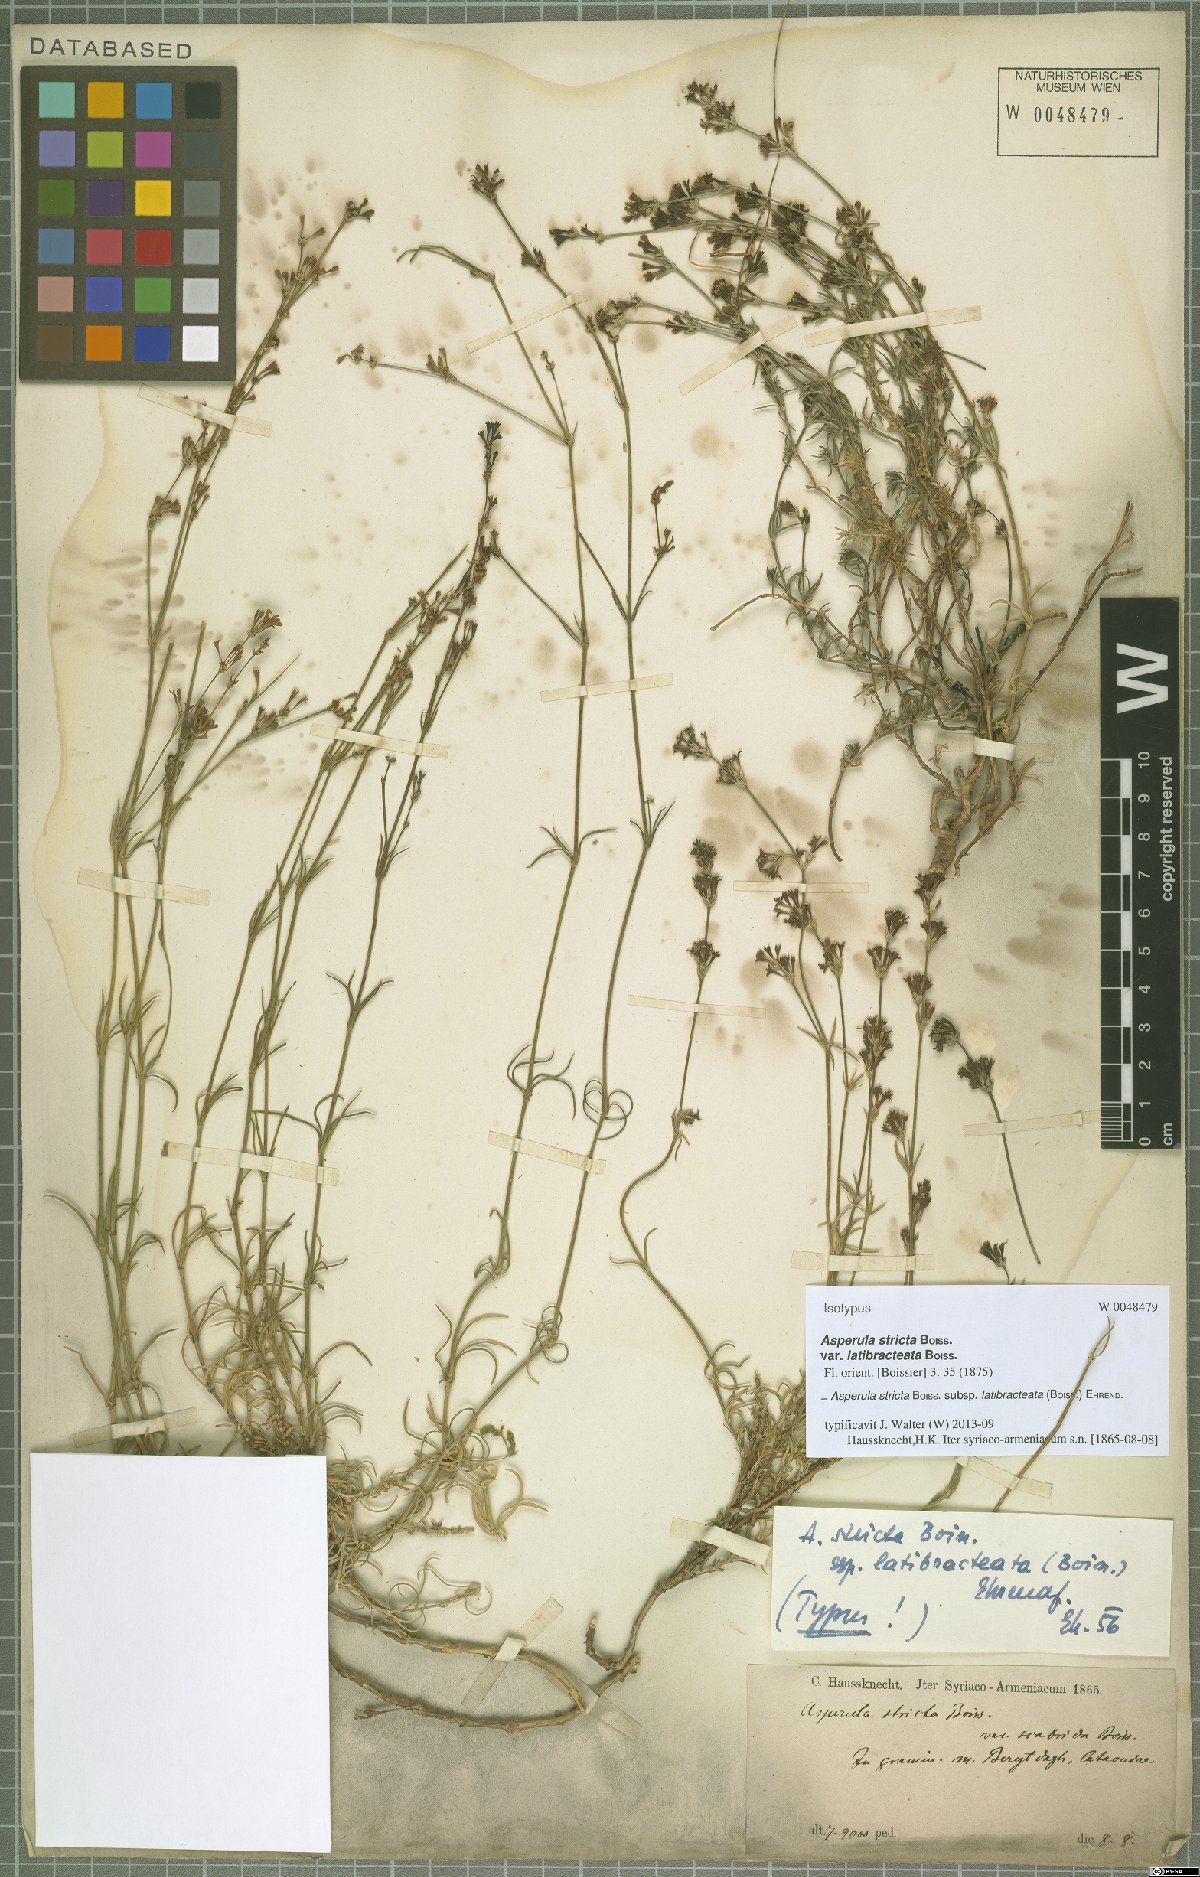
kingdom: Plantae
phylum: Tracheophyta
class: Magnoliopsida
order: Gentianales
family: Rubiaceae
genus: Cynanchica
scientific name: Cynanchica stricta
